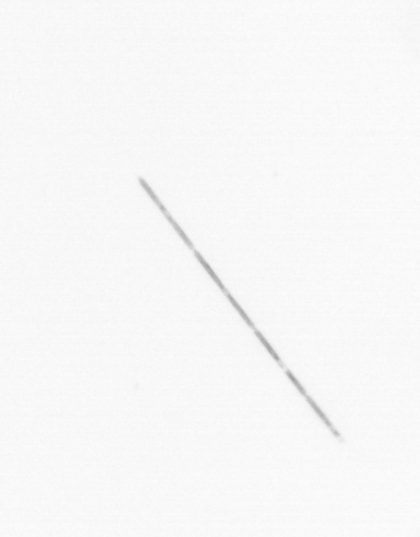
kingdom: Chromista
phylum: Ochrophyta
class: Bacillariophyceae
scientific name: Bacillariophyceae
